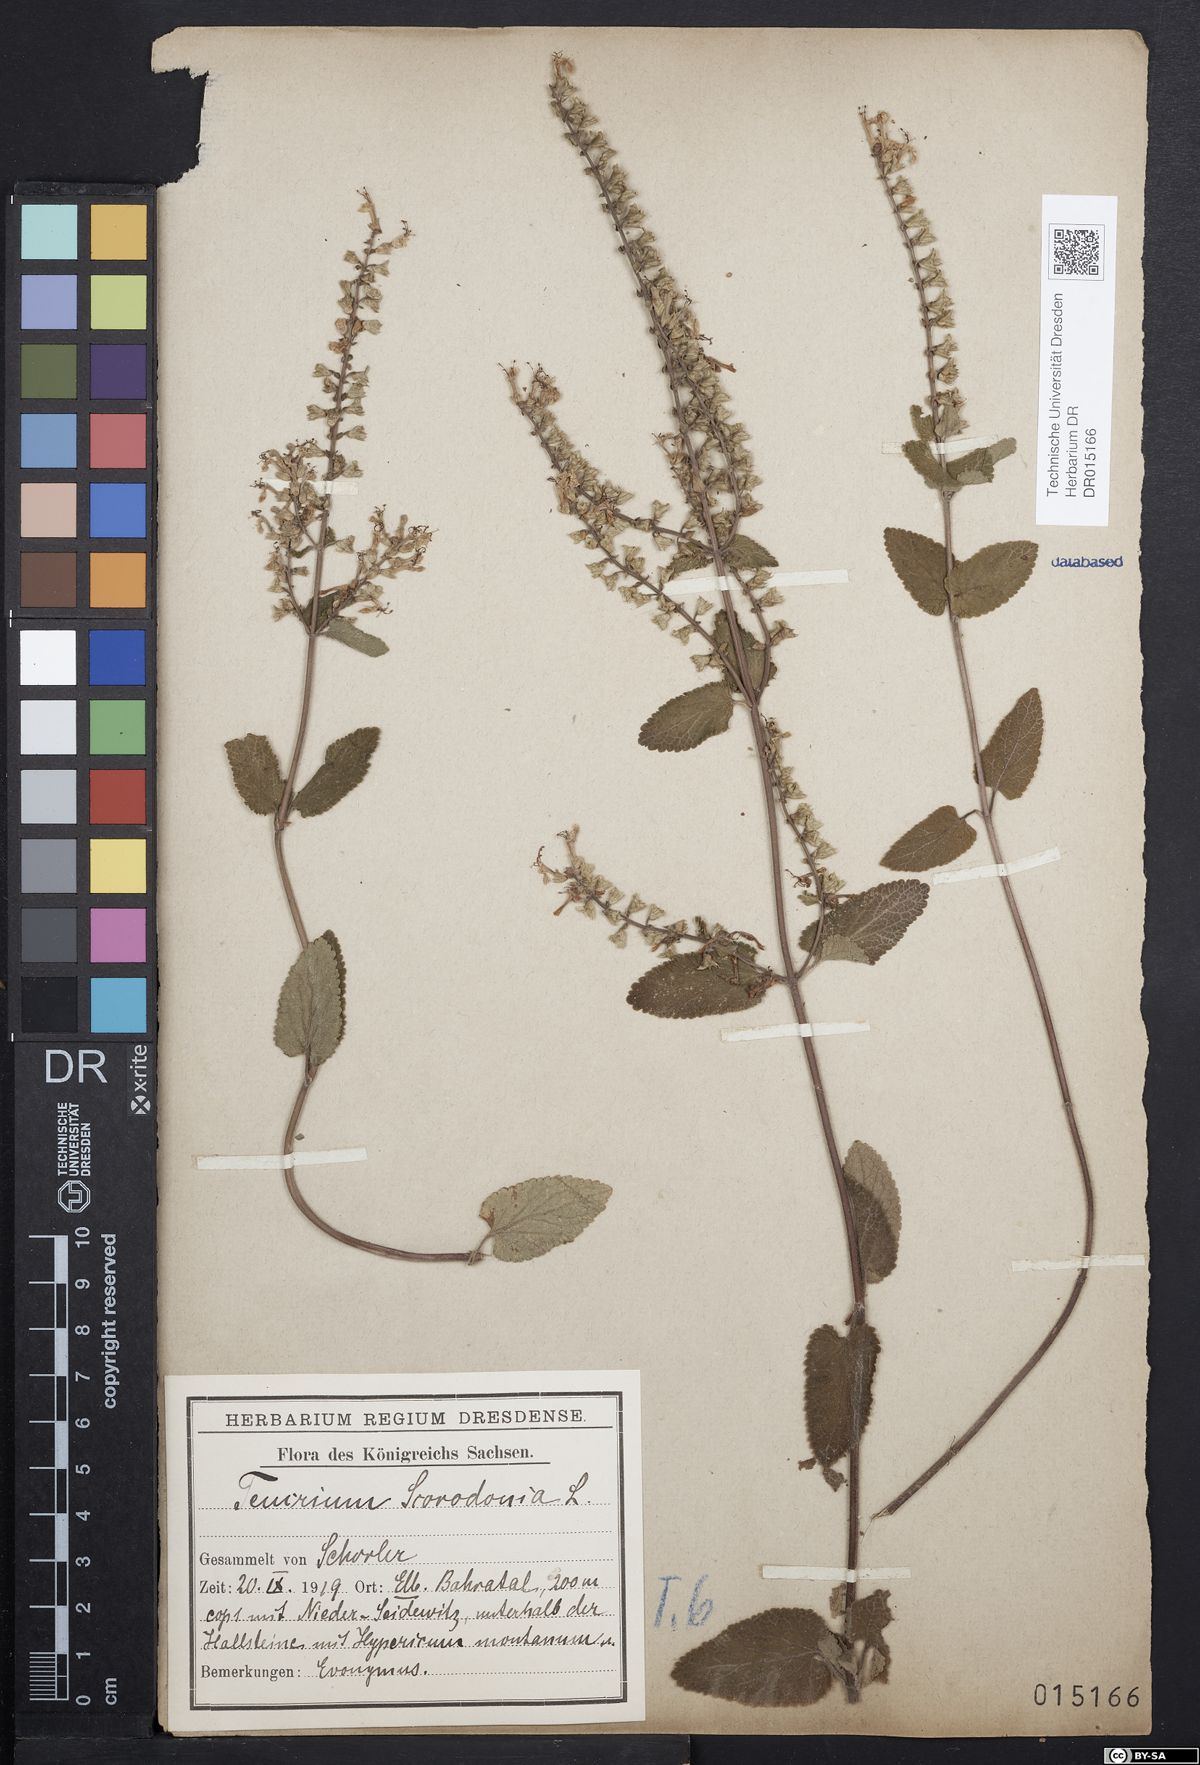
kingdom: Plantae
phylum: Tracheophyta
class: Magnoliopsida
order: Lamiales
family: Lamiaceae
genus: Teucrium
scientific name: Teucrium scorodonia
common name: Woodland germander
